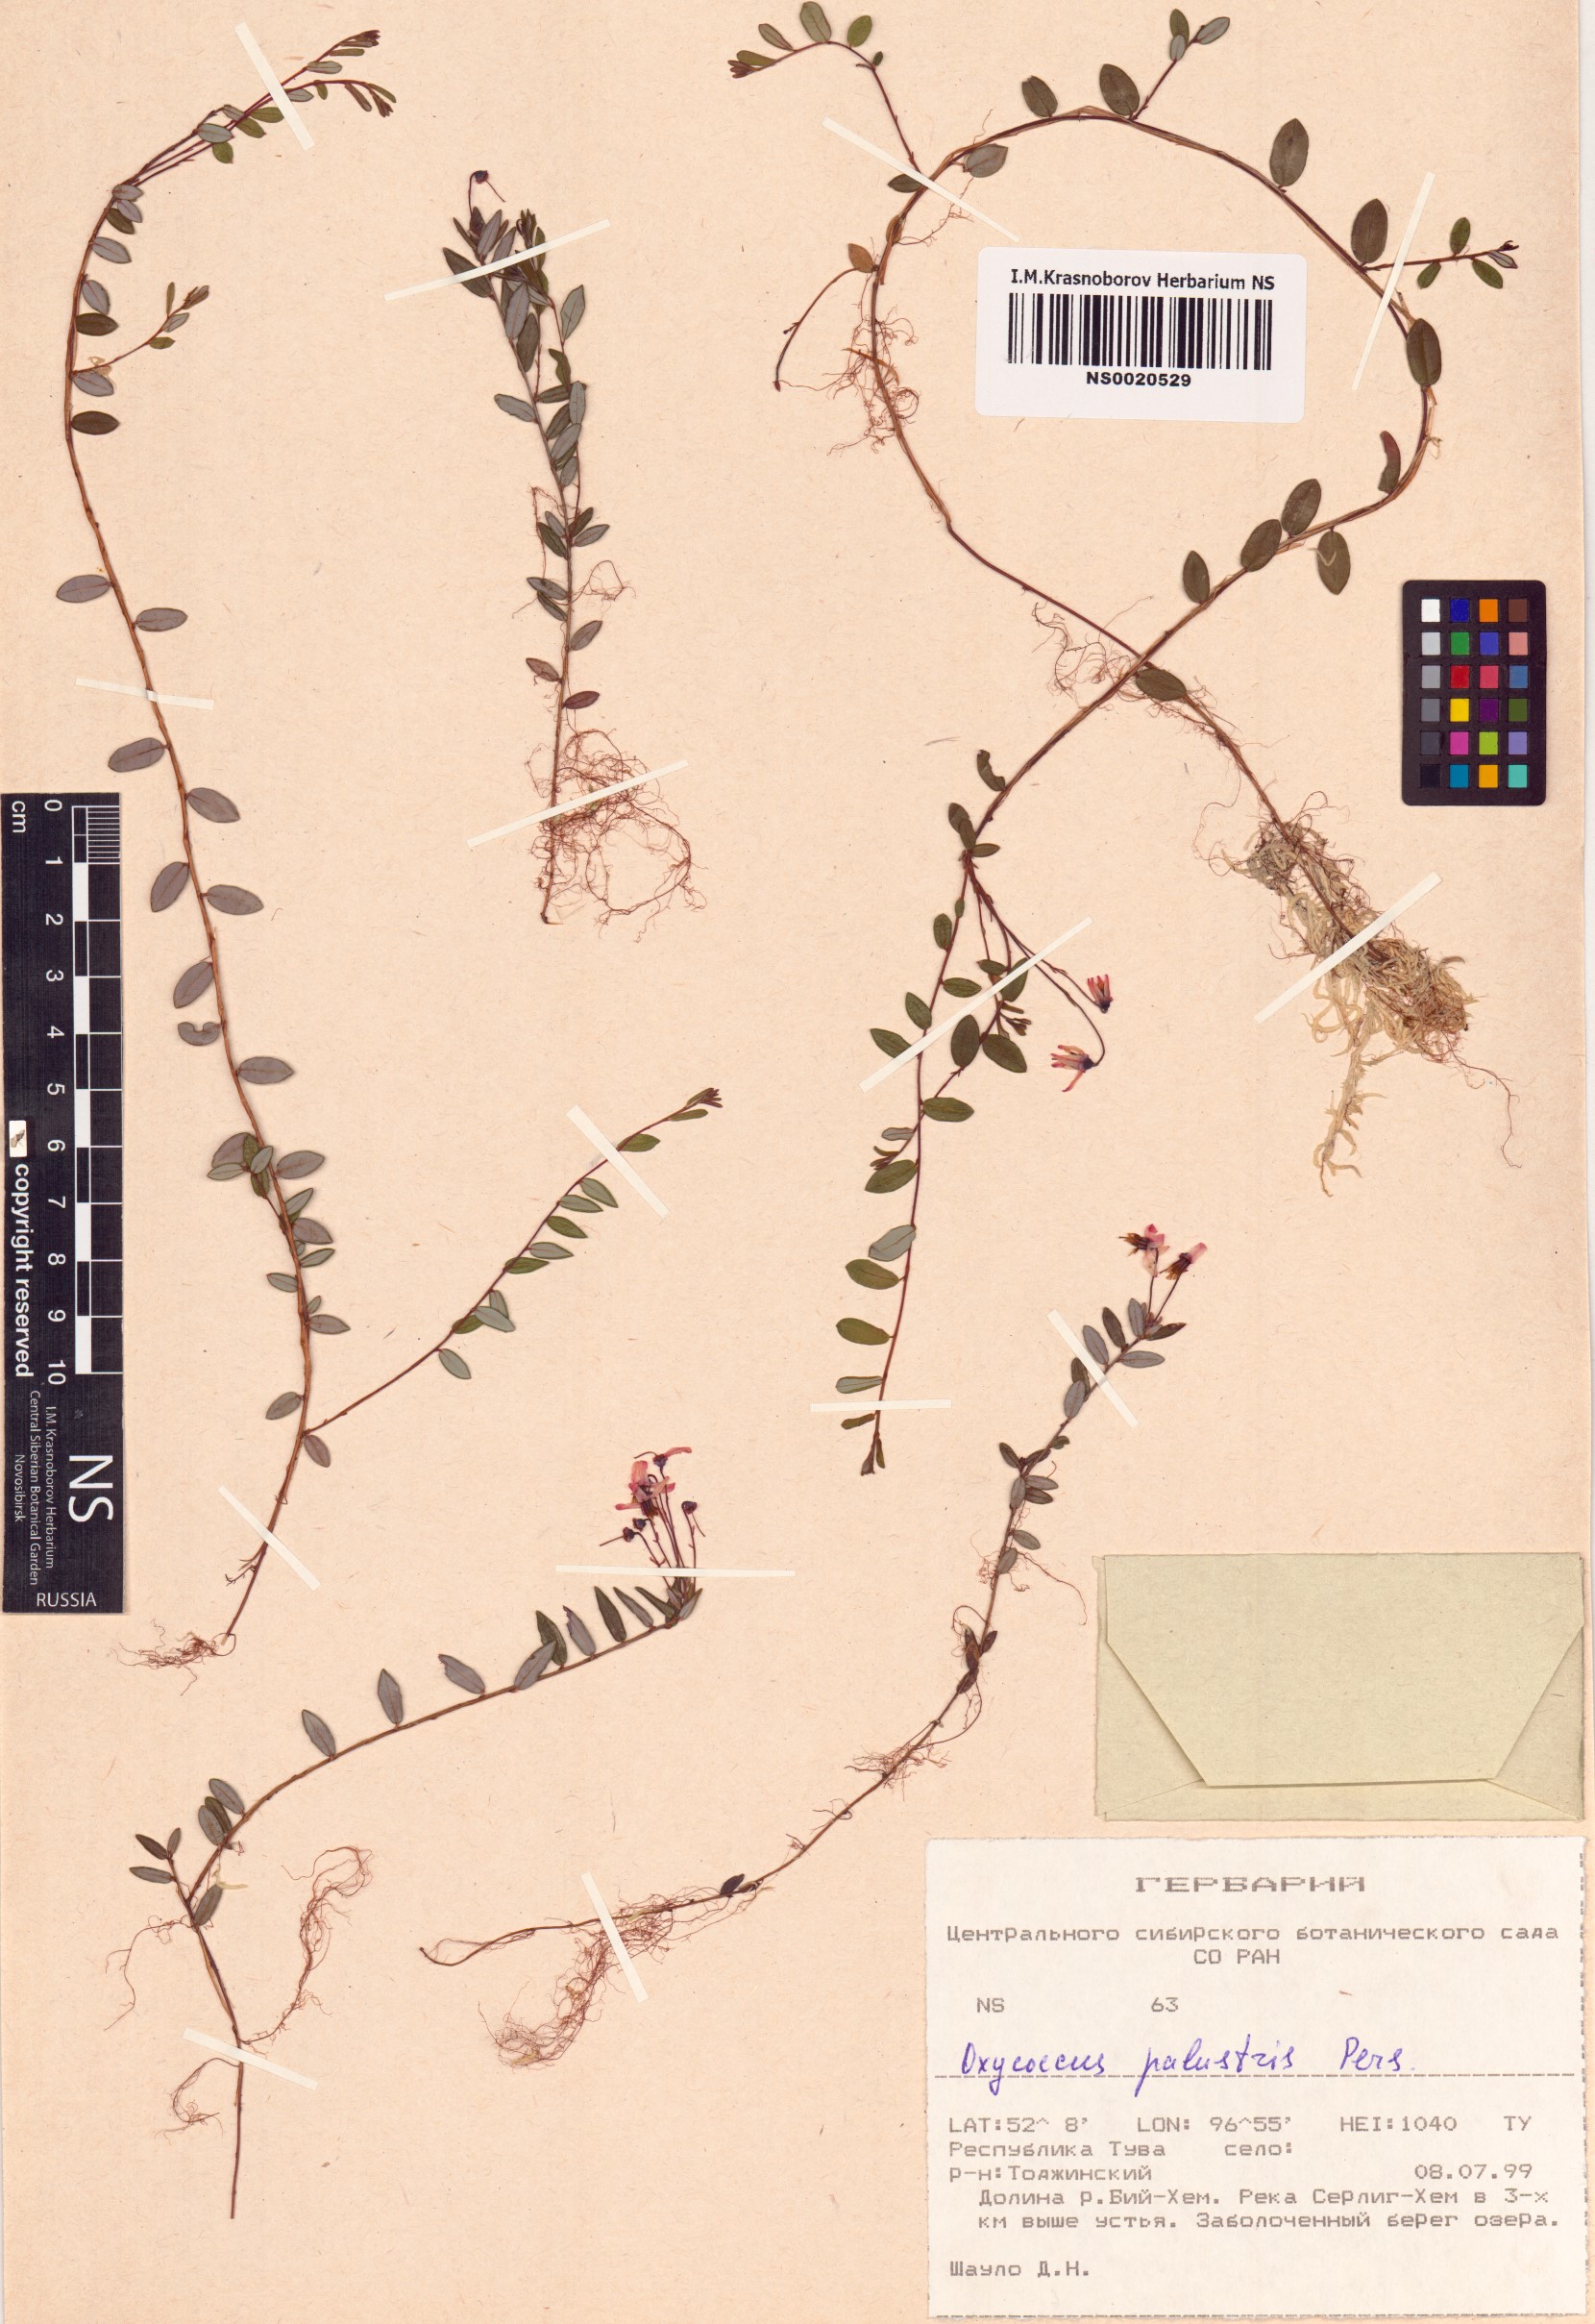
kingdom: Plantae
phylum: Tracheophyta
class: Magnoliopsida
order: Ericales
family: Ericaceae
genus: Vaccinium
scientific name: Vaccinium oxycoccos
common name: Cranberry
